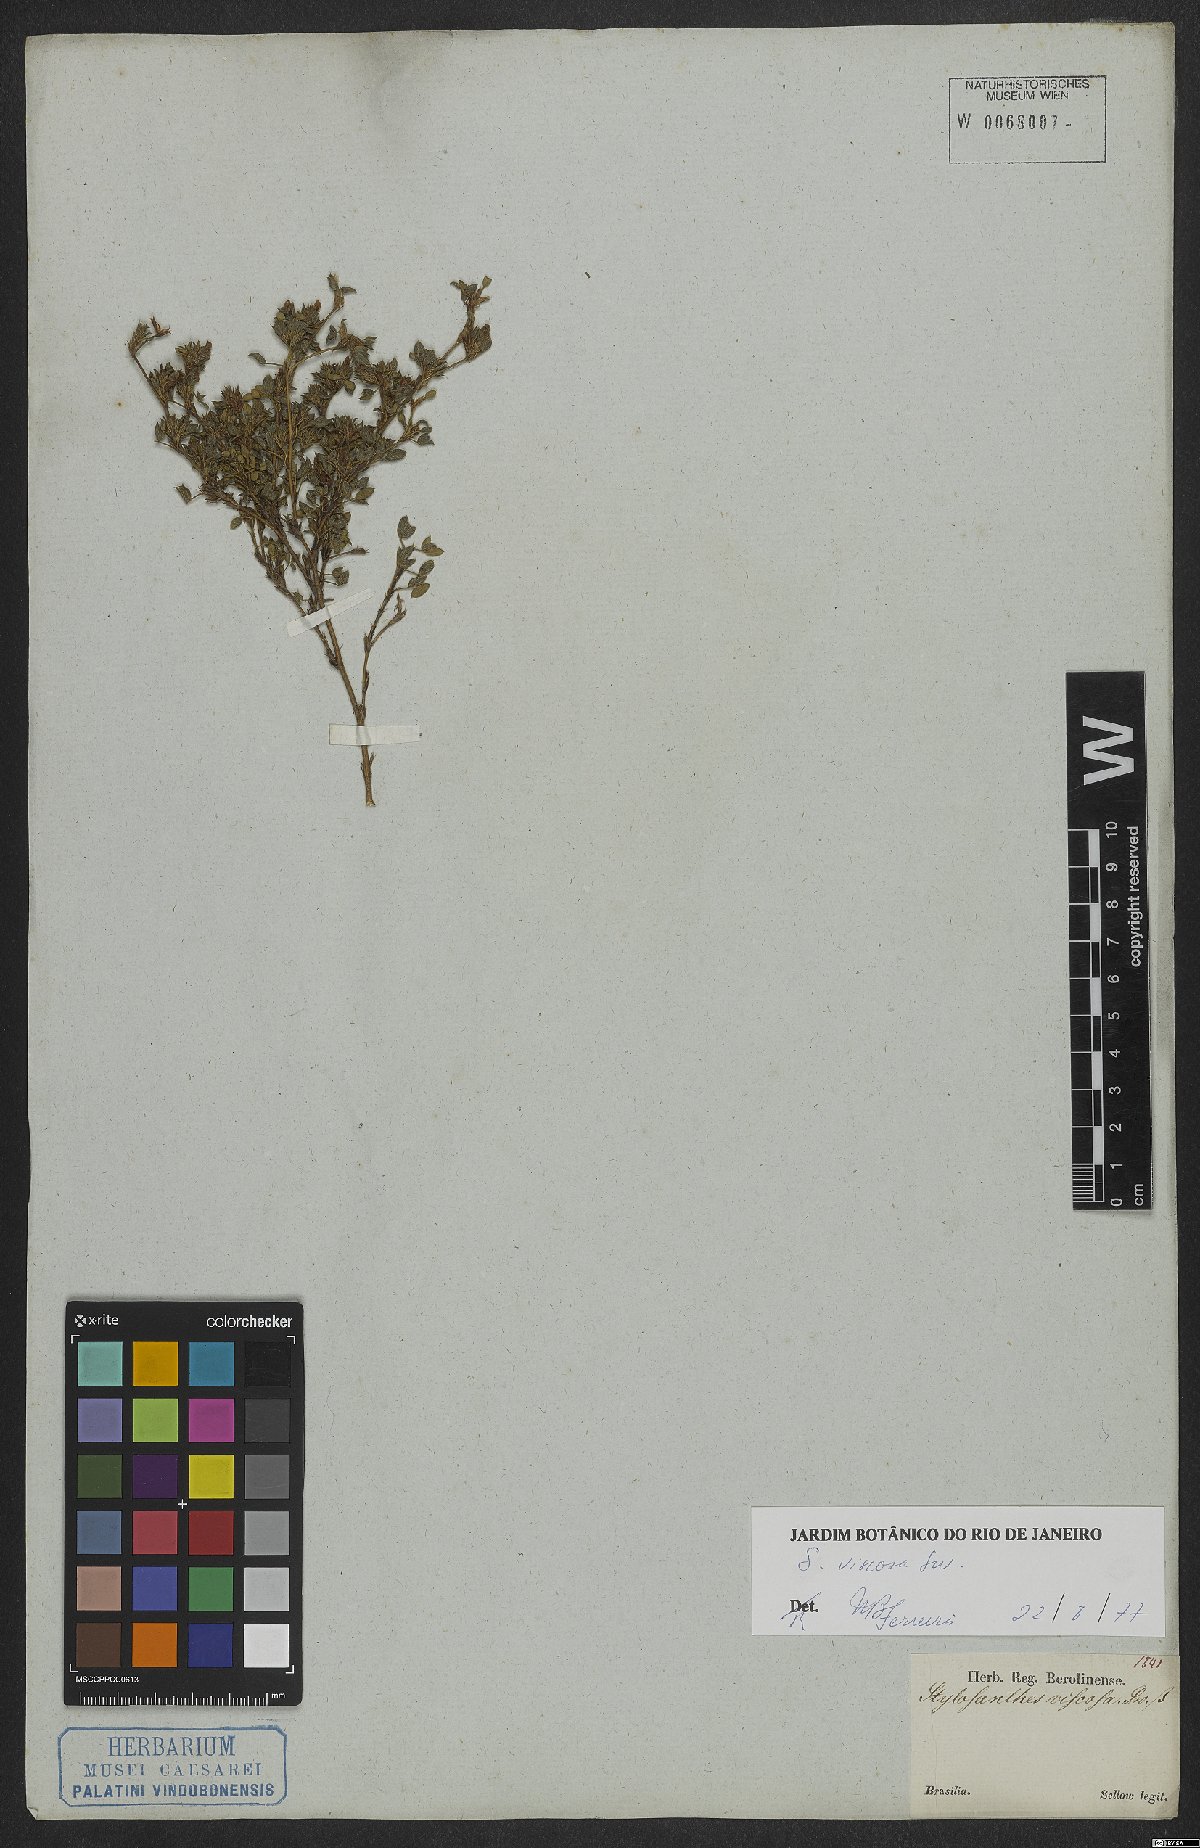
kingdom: Plantae
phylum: Tracheophyta
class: Magnoliopsida
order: Fabales
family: Fabaceae
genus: Stylosanthes
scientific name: Stylosanthes viscosa
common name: Viscid pencil-flower
